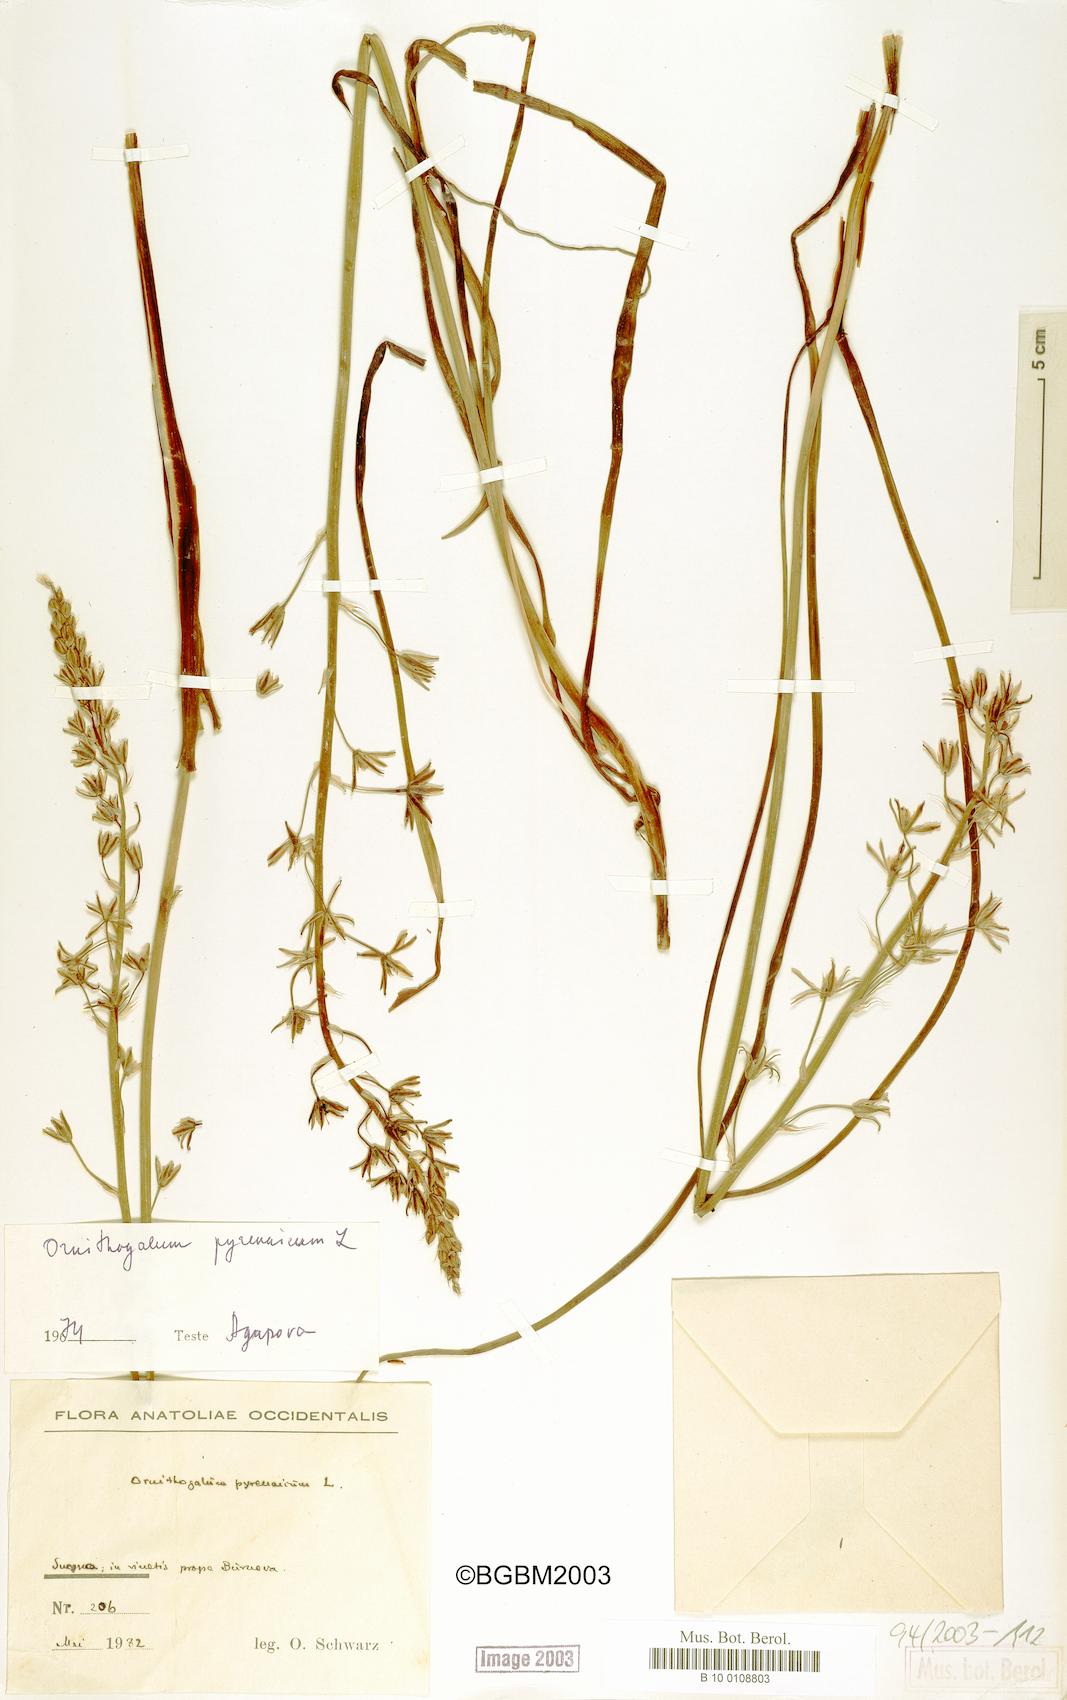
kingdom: Plantae
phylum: Tracheophyta
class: Liliopsida
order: Asparagales
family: Asparagaceae
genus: Ornithogalum
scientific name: Ornithogalum pyrenaicum
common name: Spiked star-of-bethlehem
